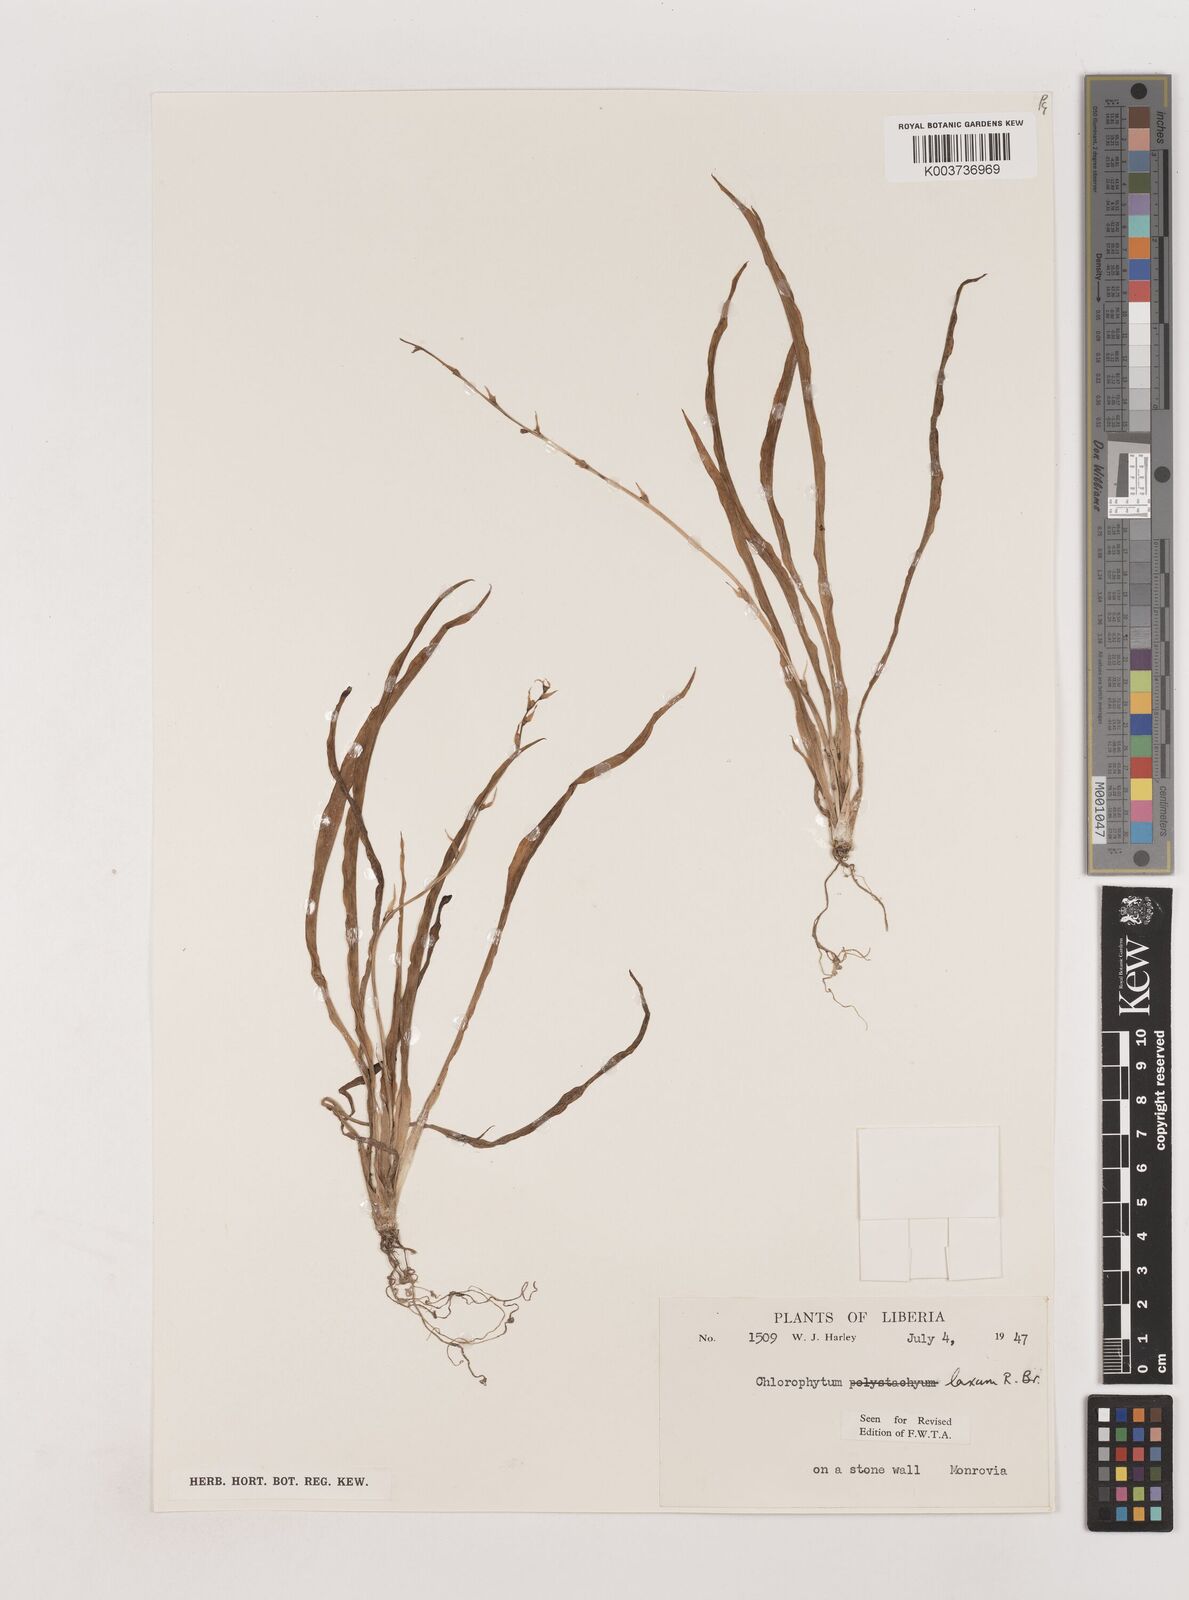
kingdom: Plantae
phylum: Tracheophyta
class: Liliopsida
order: Asparagales
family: Asparagaceae
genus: Chlorophytum
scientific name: Chlorophytum laxum
